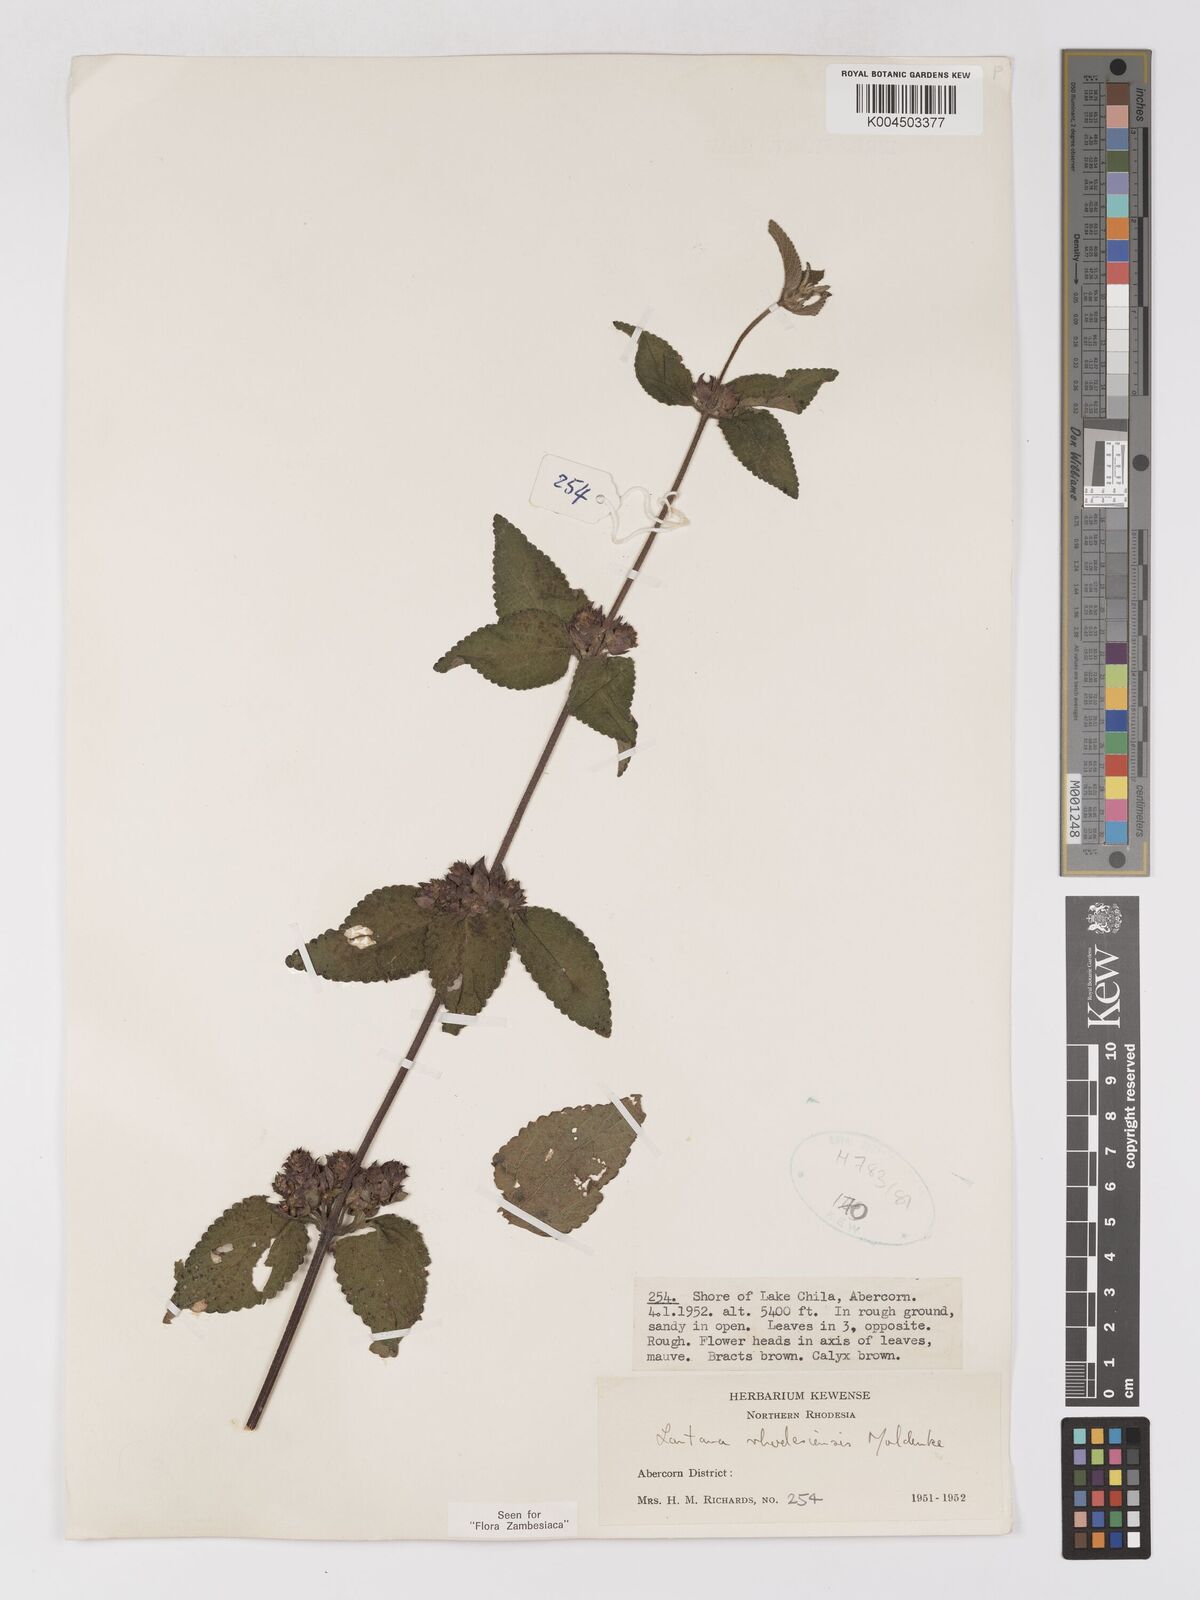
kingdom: Plantae
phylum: Tracheophyta
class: Magnoliopsida
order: Lamiales
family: Verbenaceae
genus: Lantana
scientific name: Lantana ukambensis
